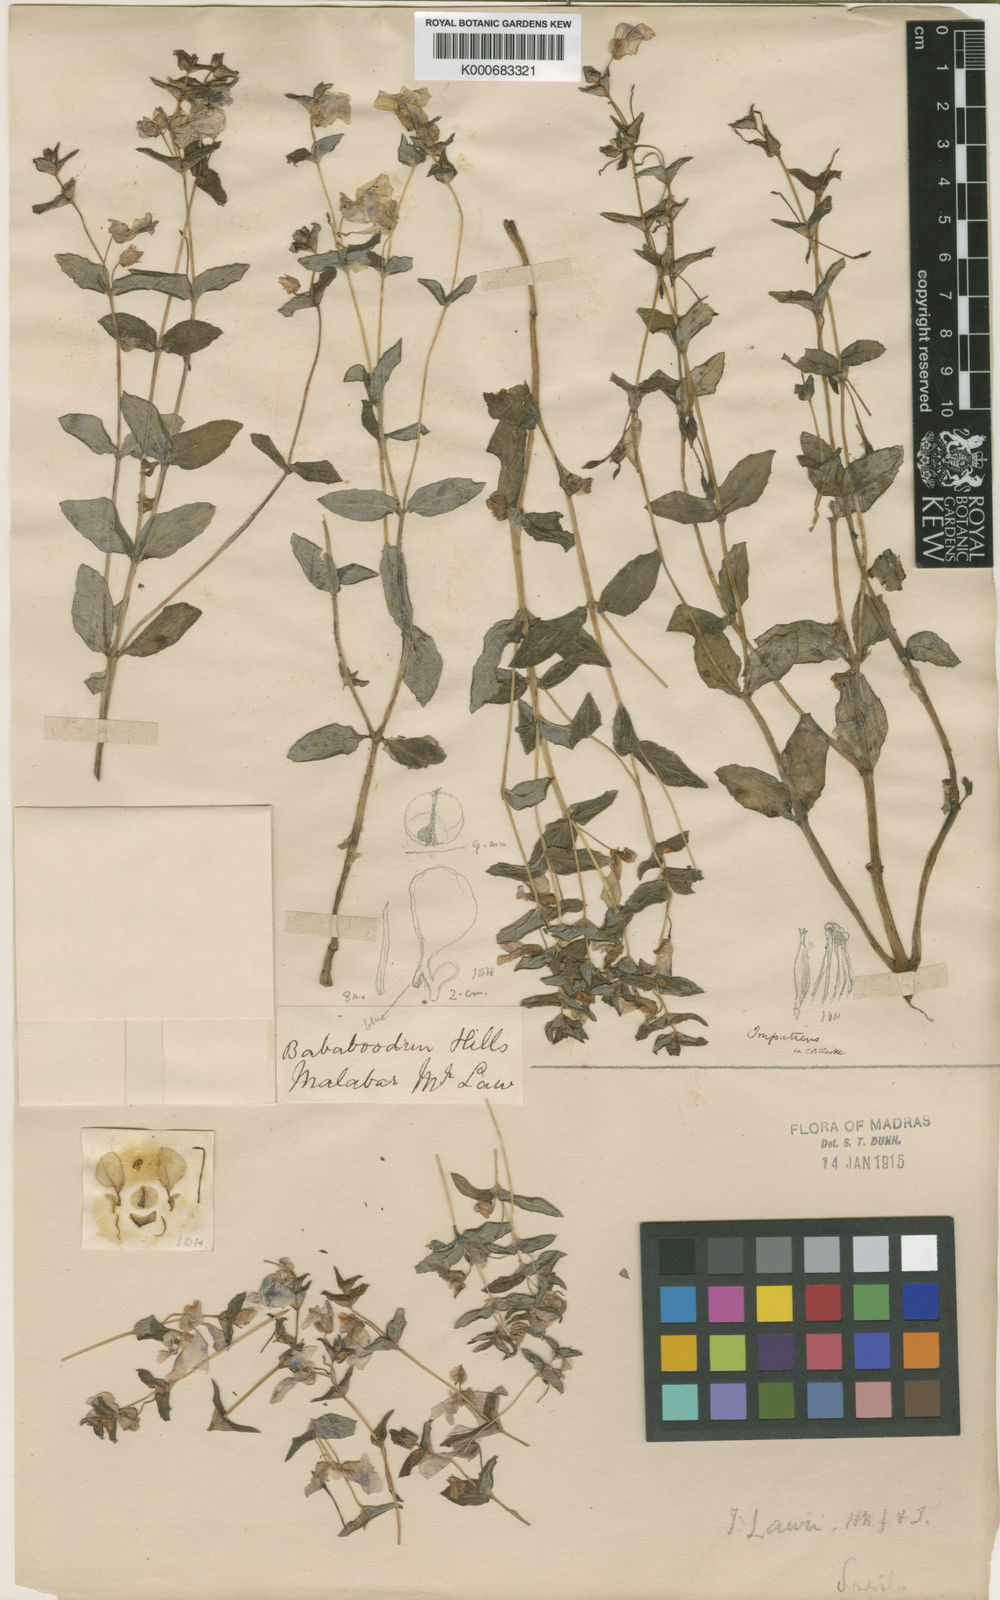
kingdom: Plantae
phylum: Tracheophyta
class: Magnoliopsida
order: Ericales
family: Balsaminaceae
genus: Impatiens
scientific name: Impatiens lawii
